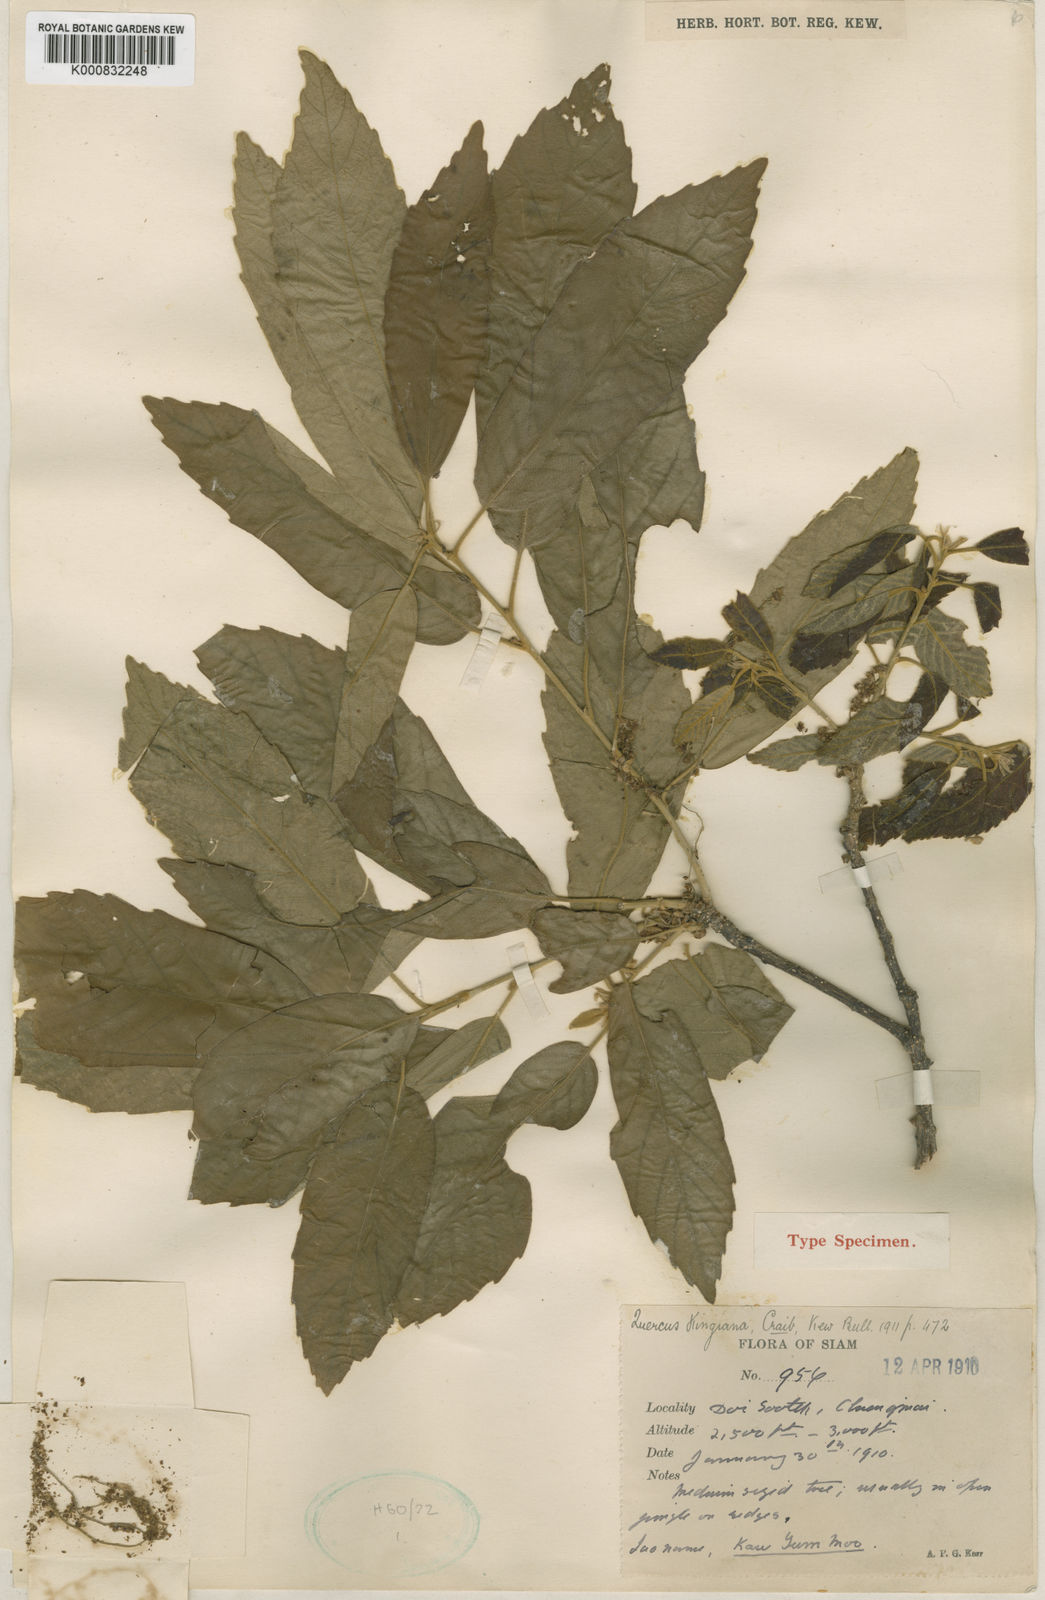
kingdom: Plantae
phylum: Tracheophyta
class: Magnoliopsida
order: Fagales
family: Fagaceae
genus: Quercus
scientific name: Quercus kingiana
